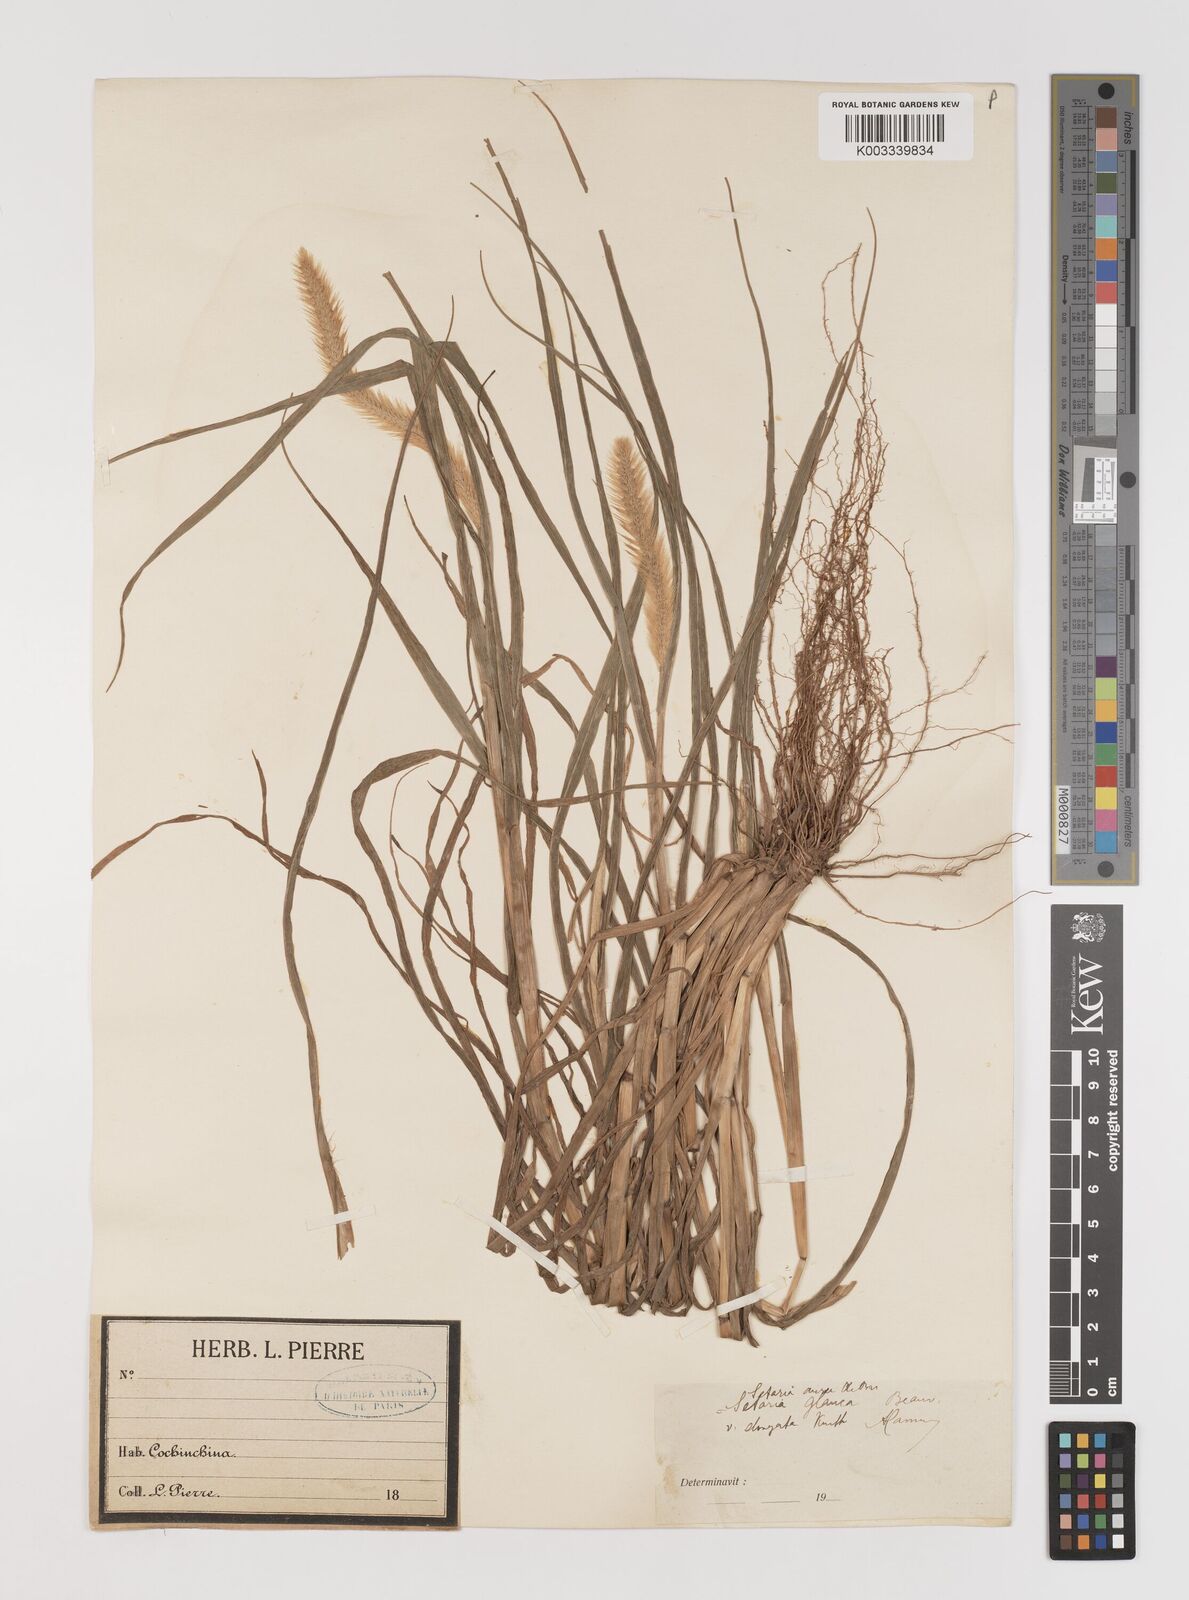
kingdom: Plantae
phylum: Tracheophyta
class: Liliopsida
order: Poales
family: Poaceae
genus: Setaria
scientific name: Setaria pumila
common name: Yellow bristle-grass
